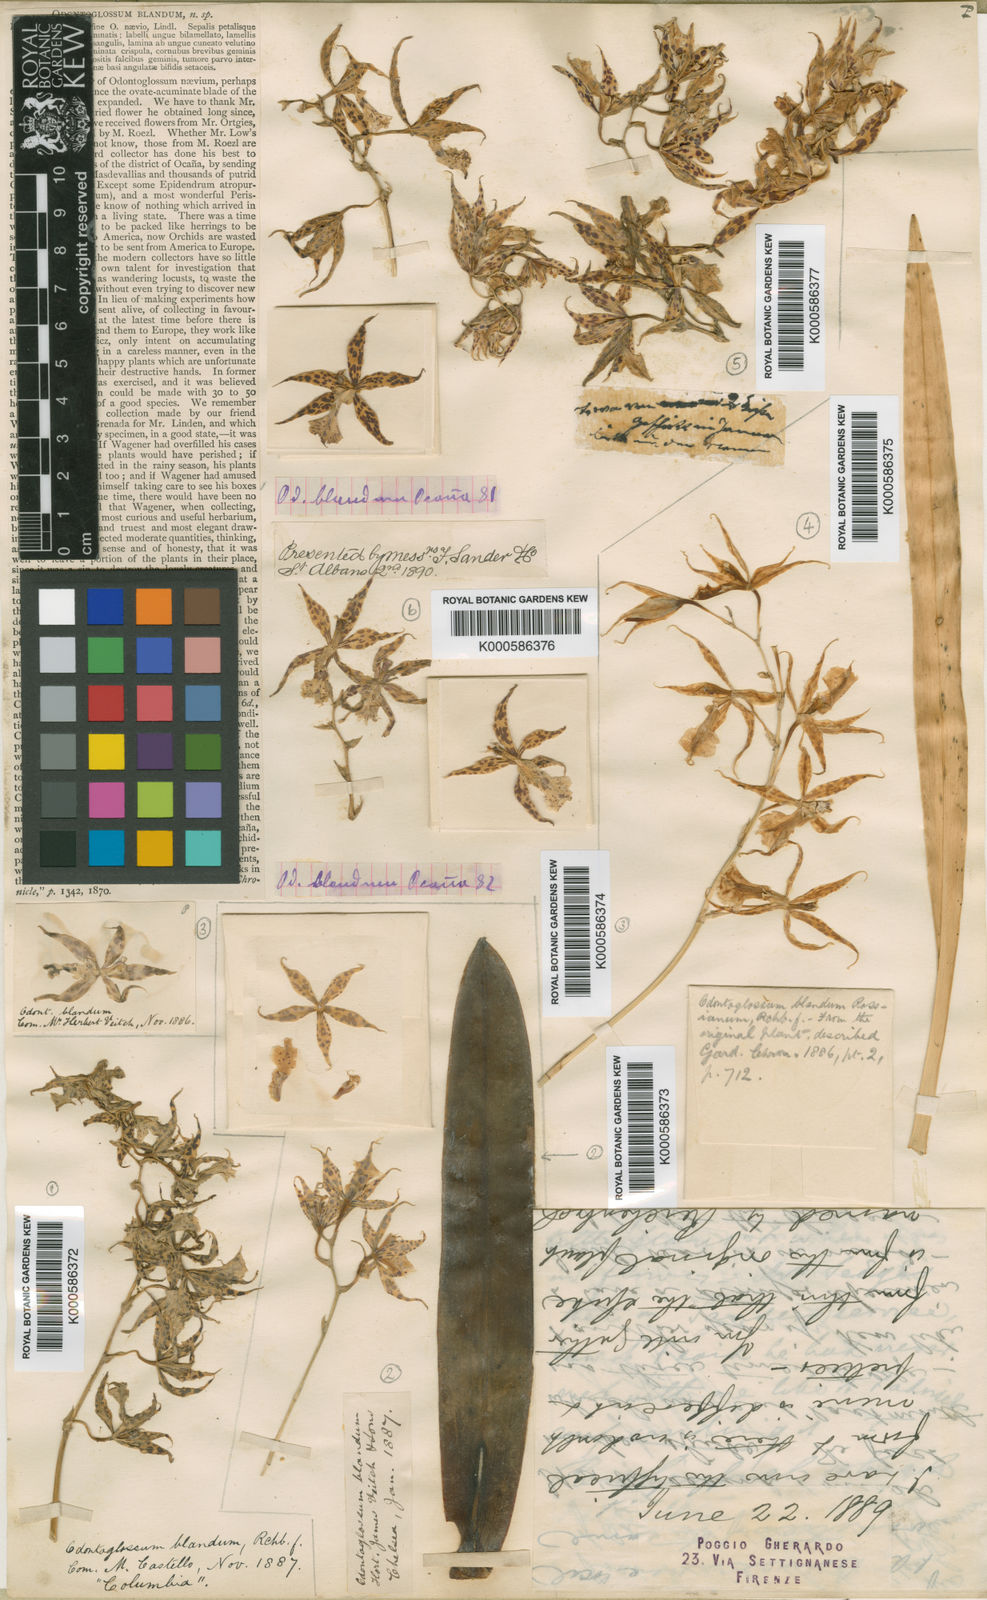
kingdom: Plantae
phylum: Tracheophyta
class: Liliopsida
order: Asparagales
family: Orchidaceae
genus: Oncidium
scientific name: Oncidium blandum
